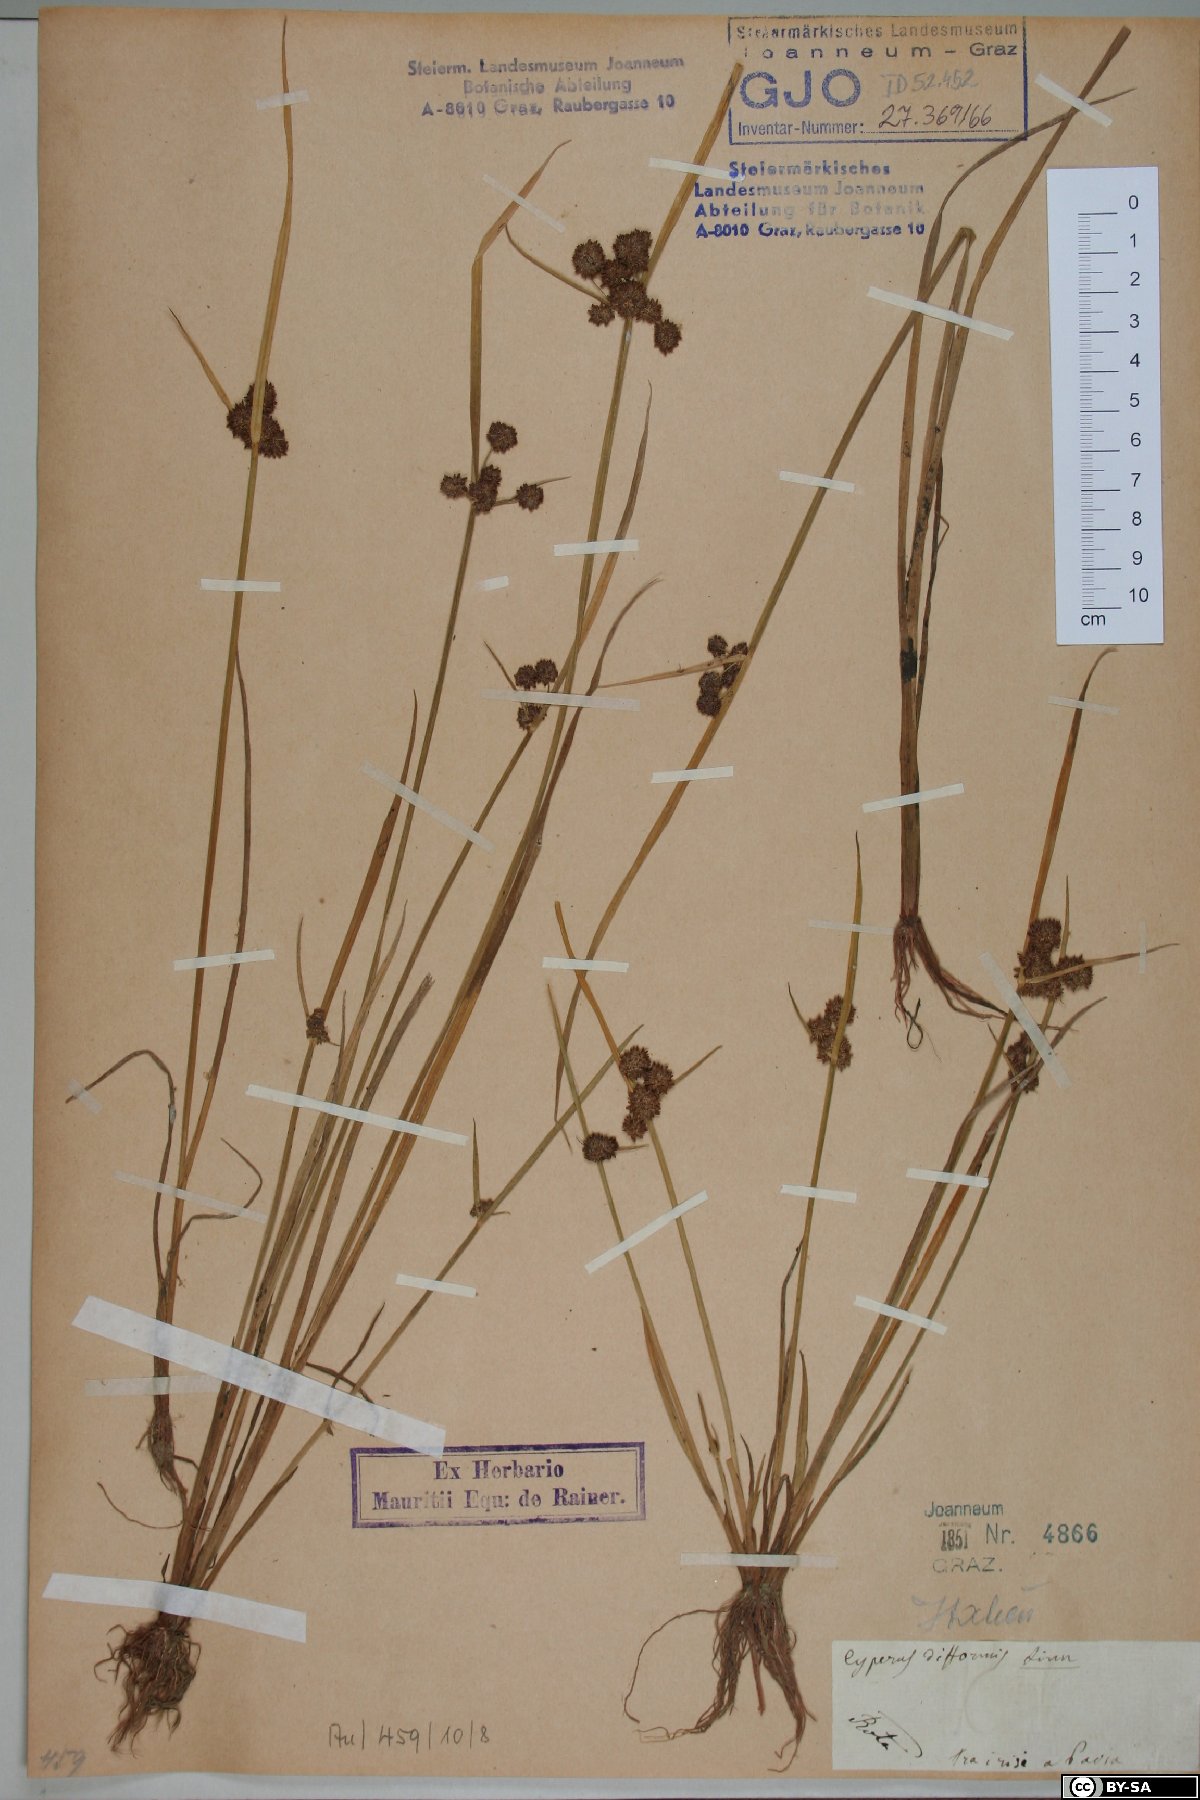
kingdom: Plantae
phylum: Tracheophyta
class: Liliopsida
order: Poales
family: Cyperaceae
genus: Cyperus
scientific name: Cyperus difformis
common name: Variable flatsedge
